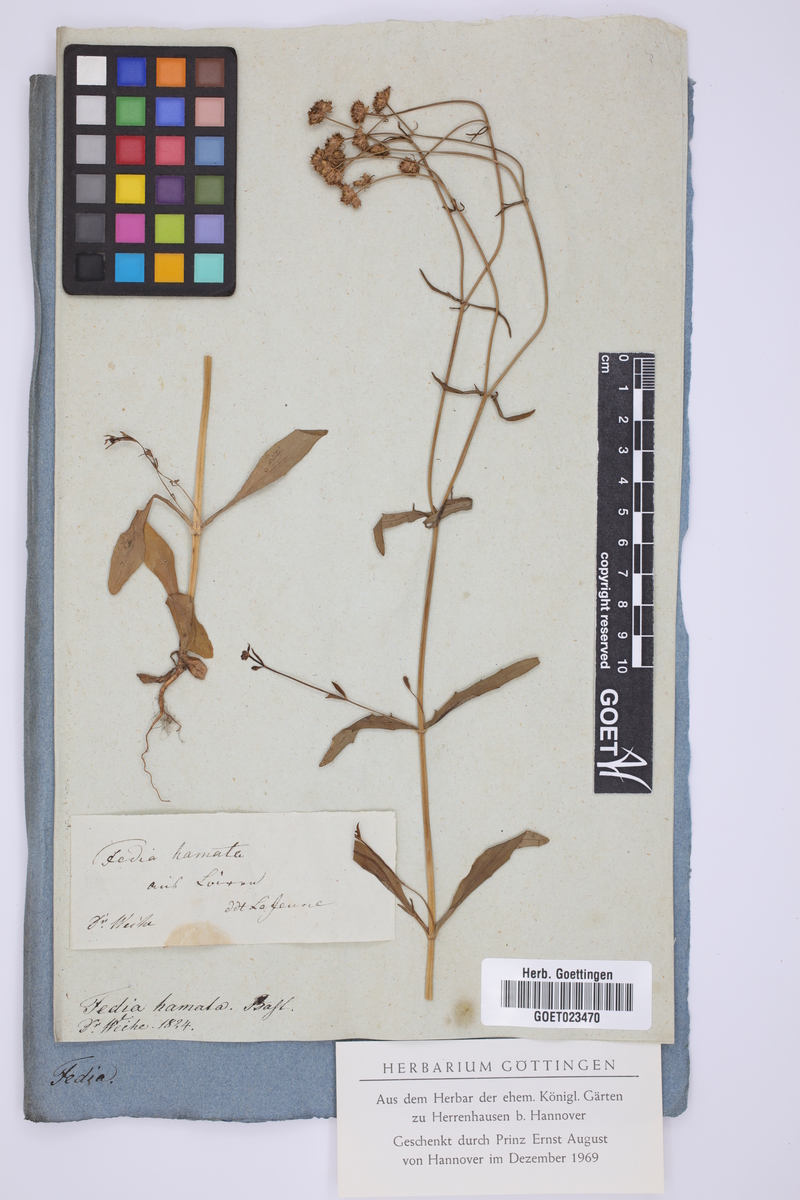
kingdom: Plantae
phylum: Tracheophyta
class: Magnoliopsida
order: Dipsacales
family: Caprifoliaceae
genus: Valerianella
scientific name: Valerianella coronata
